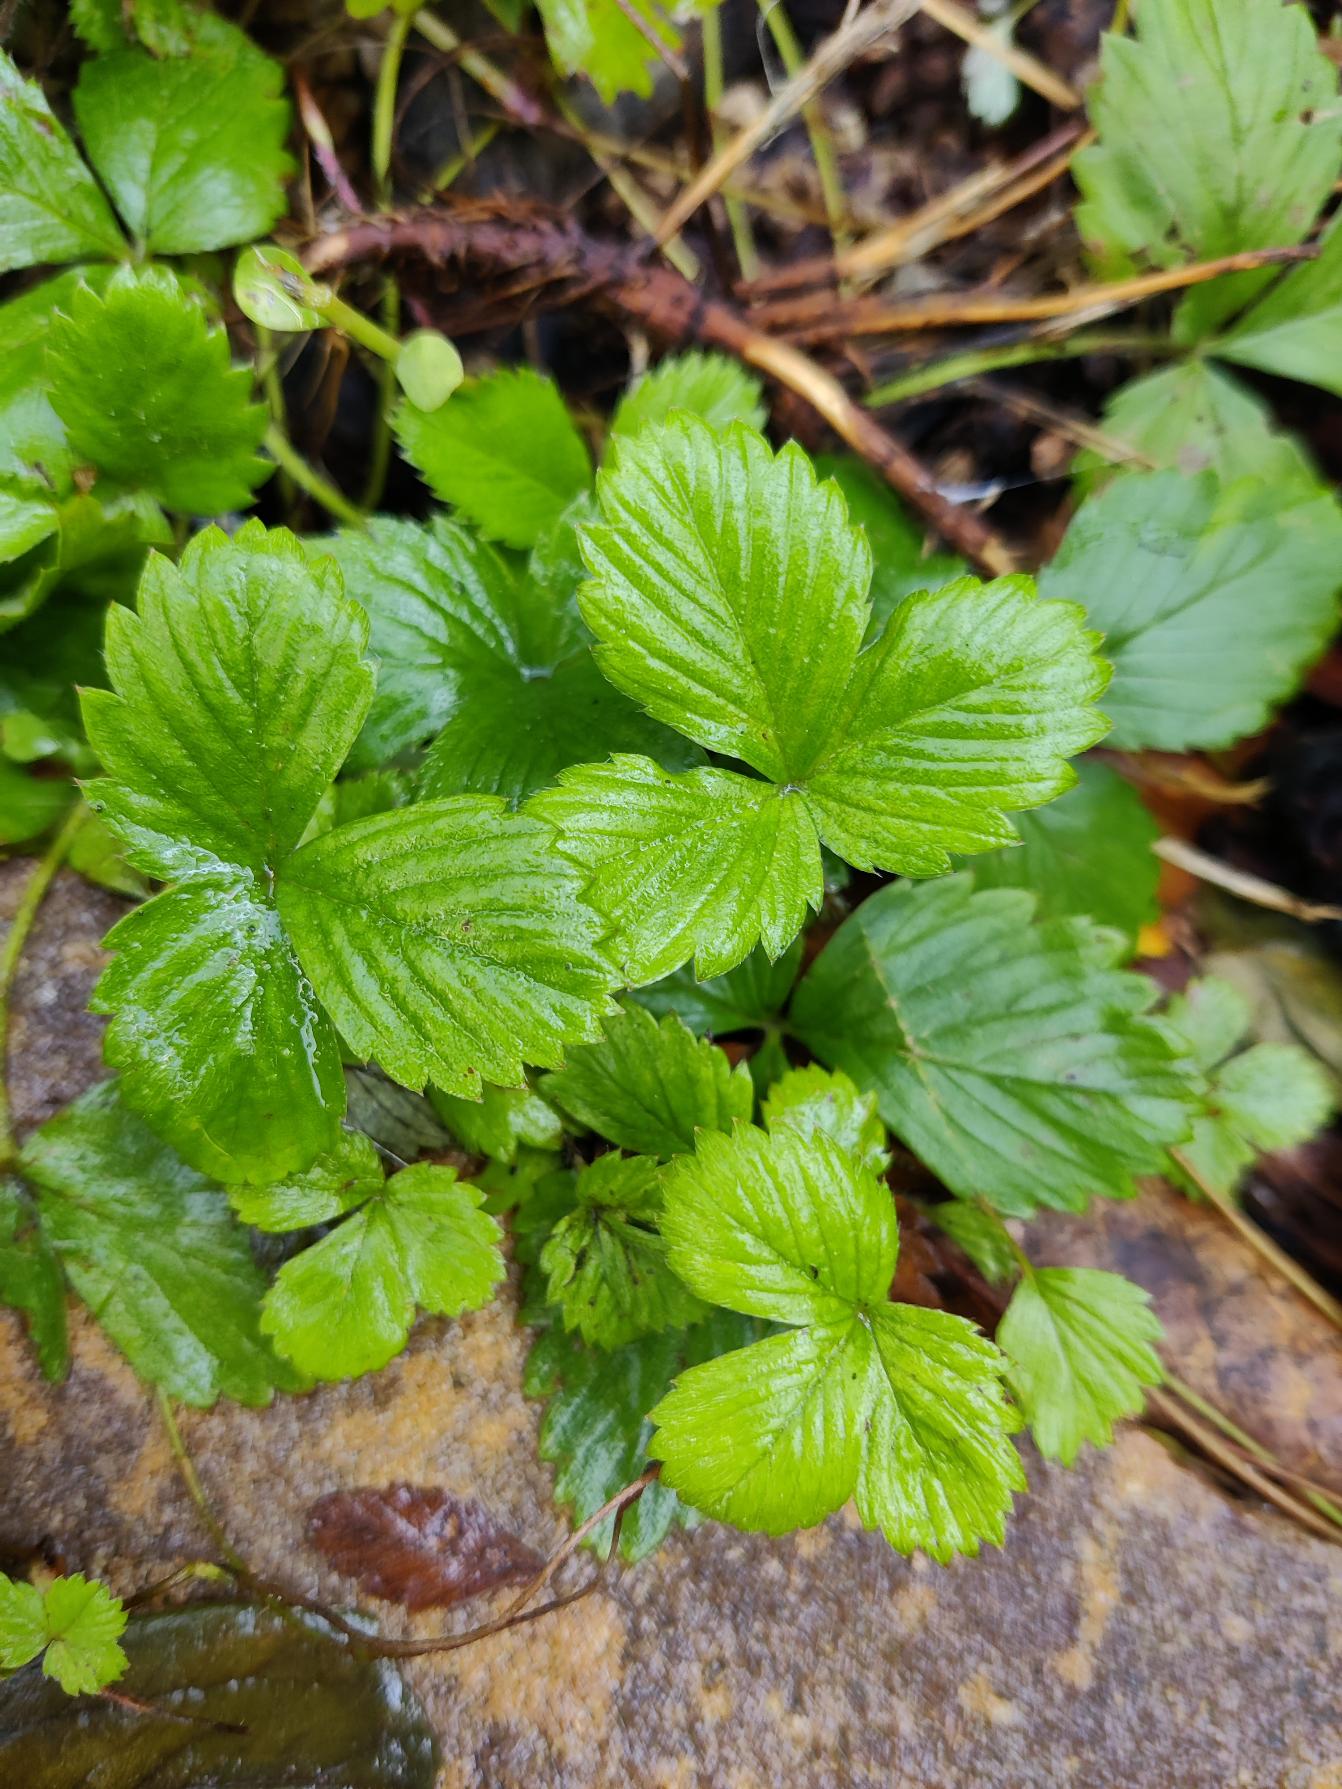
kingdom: Plantae
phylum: Tracheophyta
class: Magnoliopsida
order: Rosales
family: Rosaceae
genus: Fragaria
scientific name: Fragaria vesca
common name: Skov-jordbær
